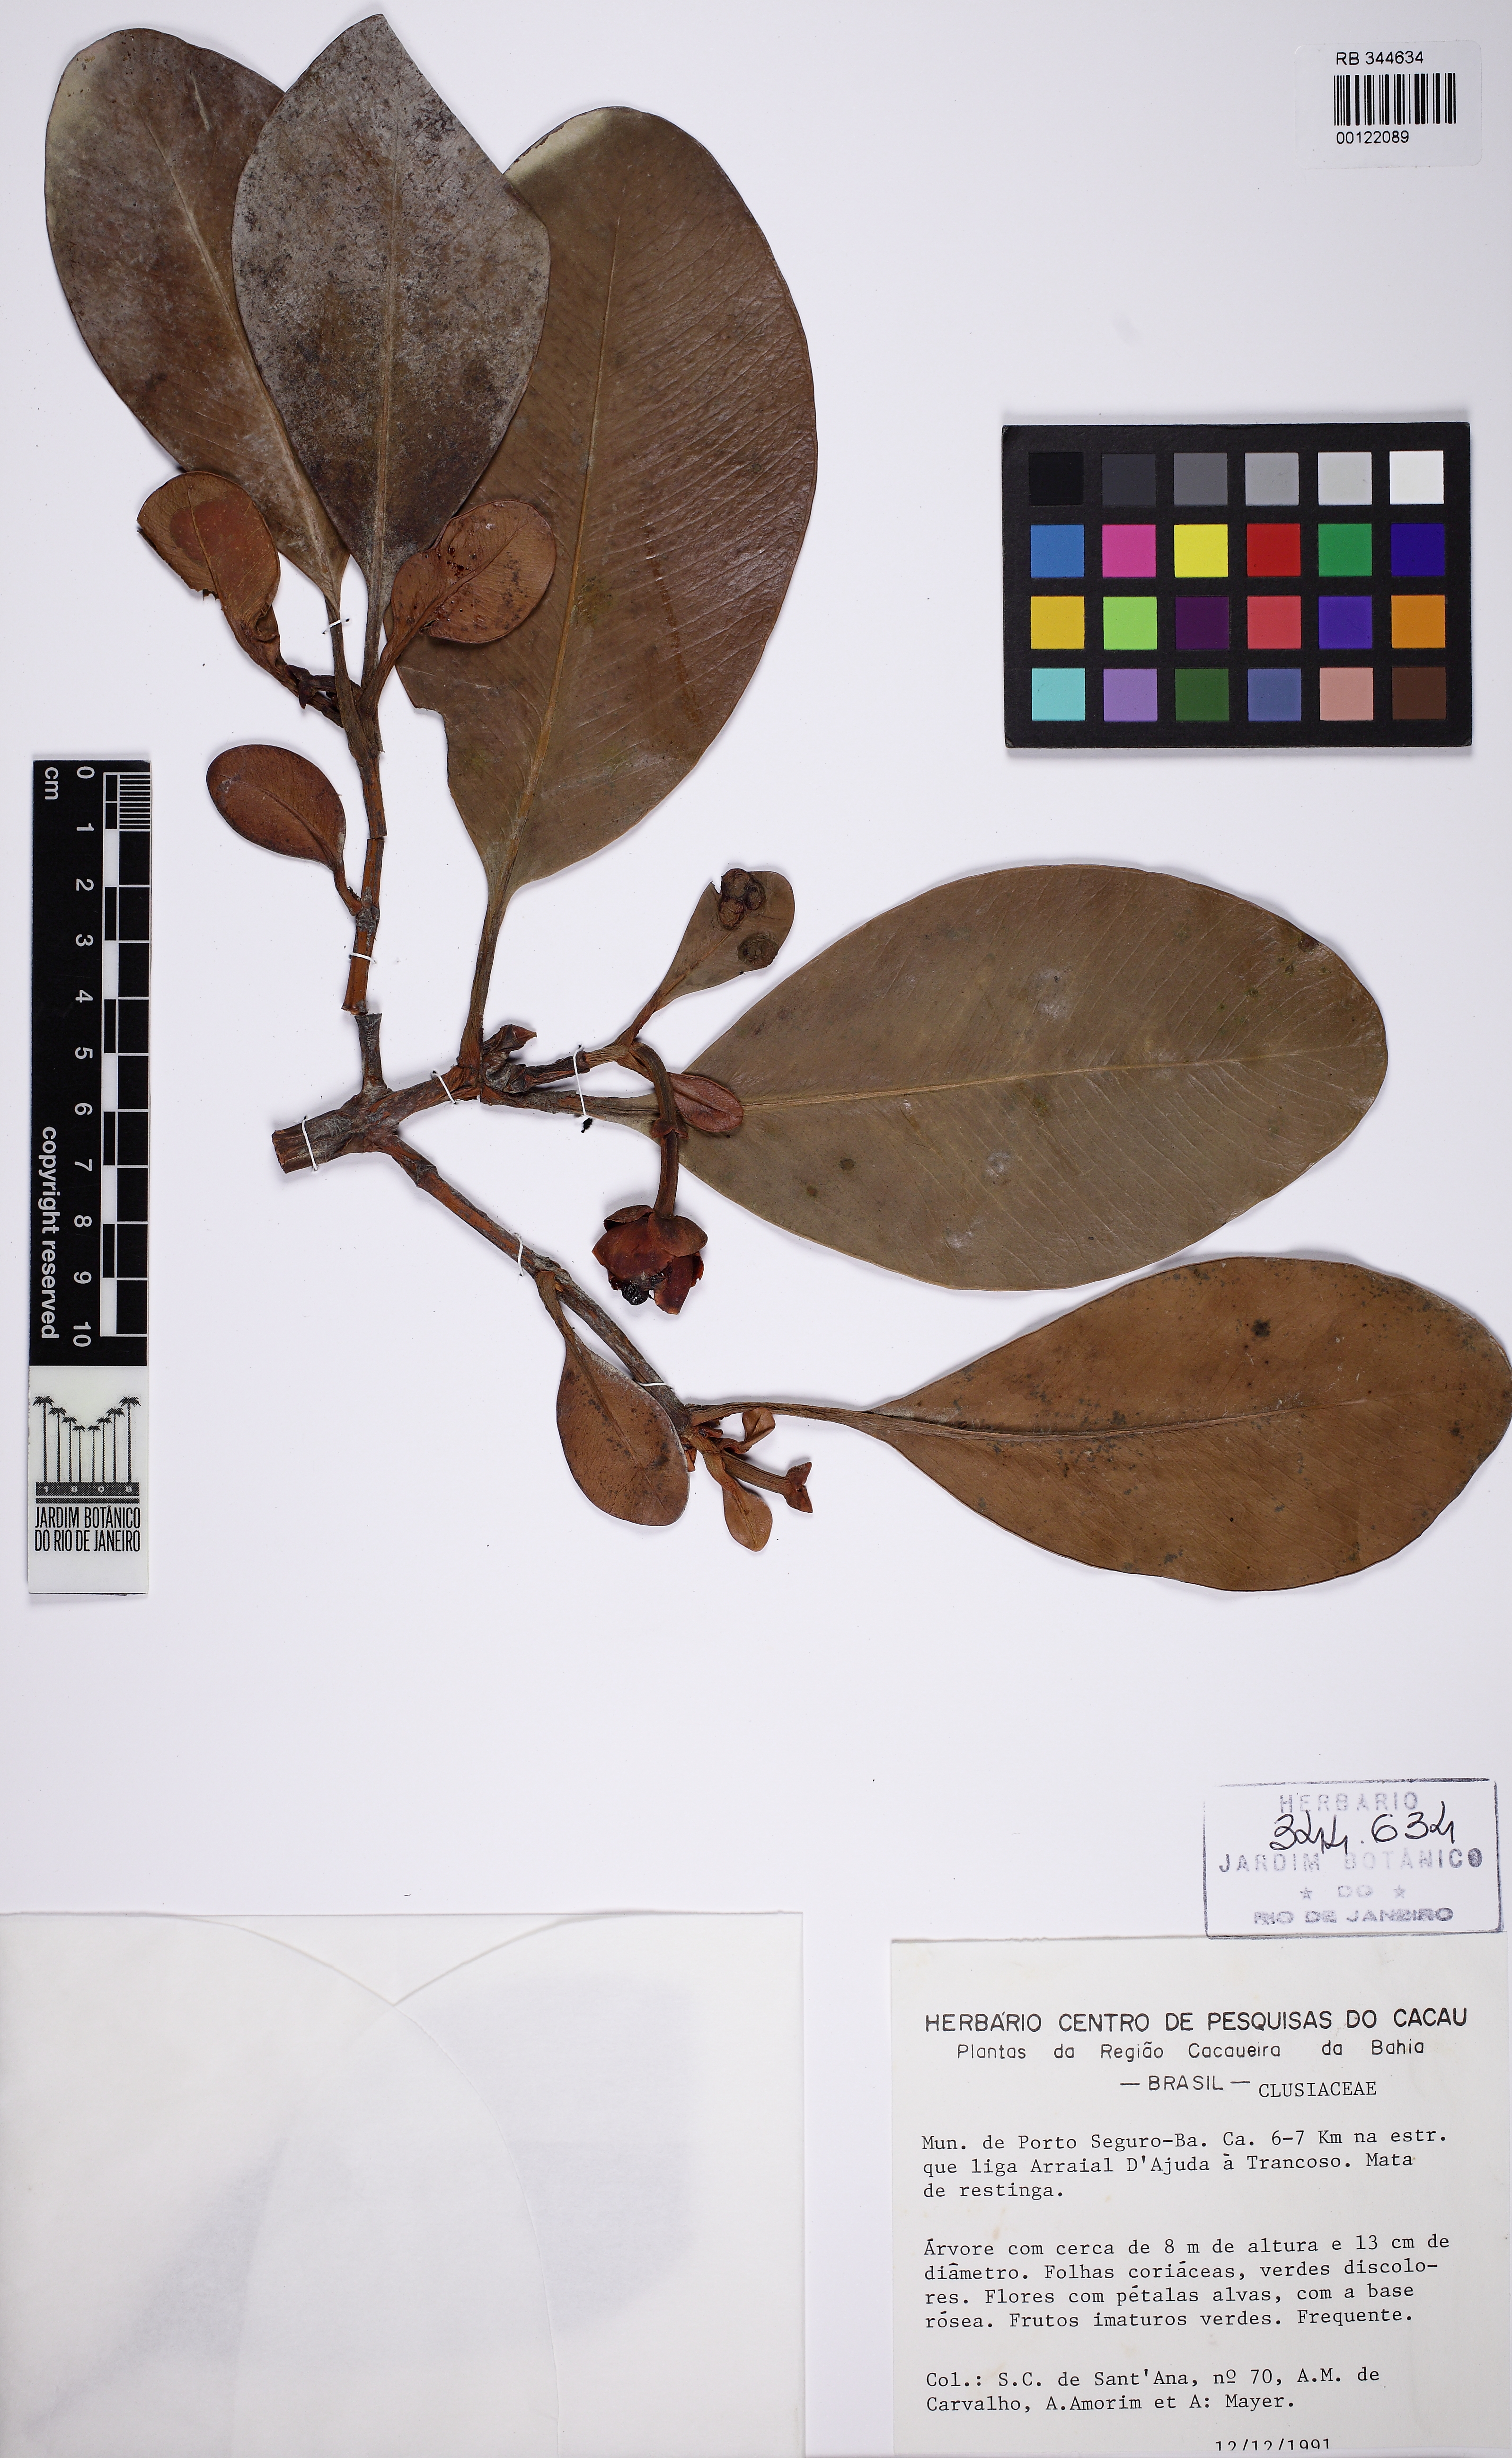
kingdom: Plantae
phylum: Tracheophyta
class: Magnoliopsida
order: Malpighiales
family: Clusiaceae
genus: Clusia
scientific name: Clusia nemorosa
